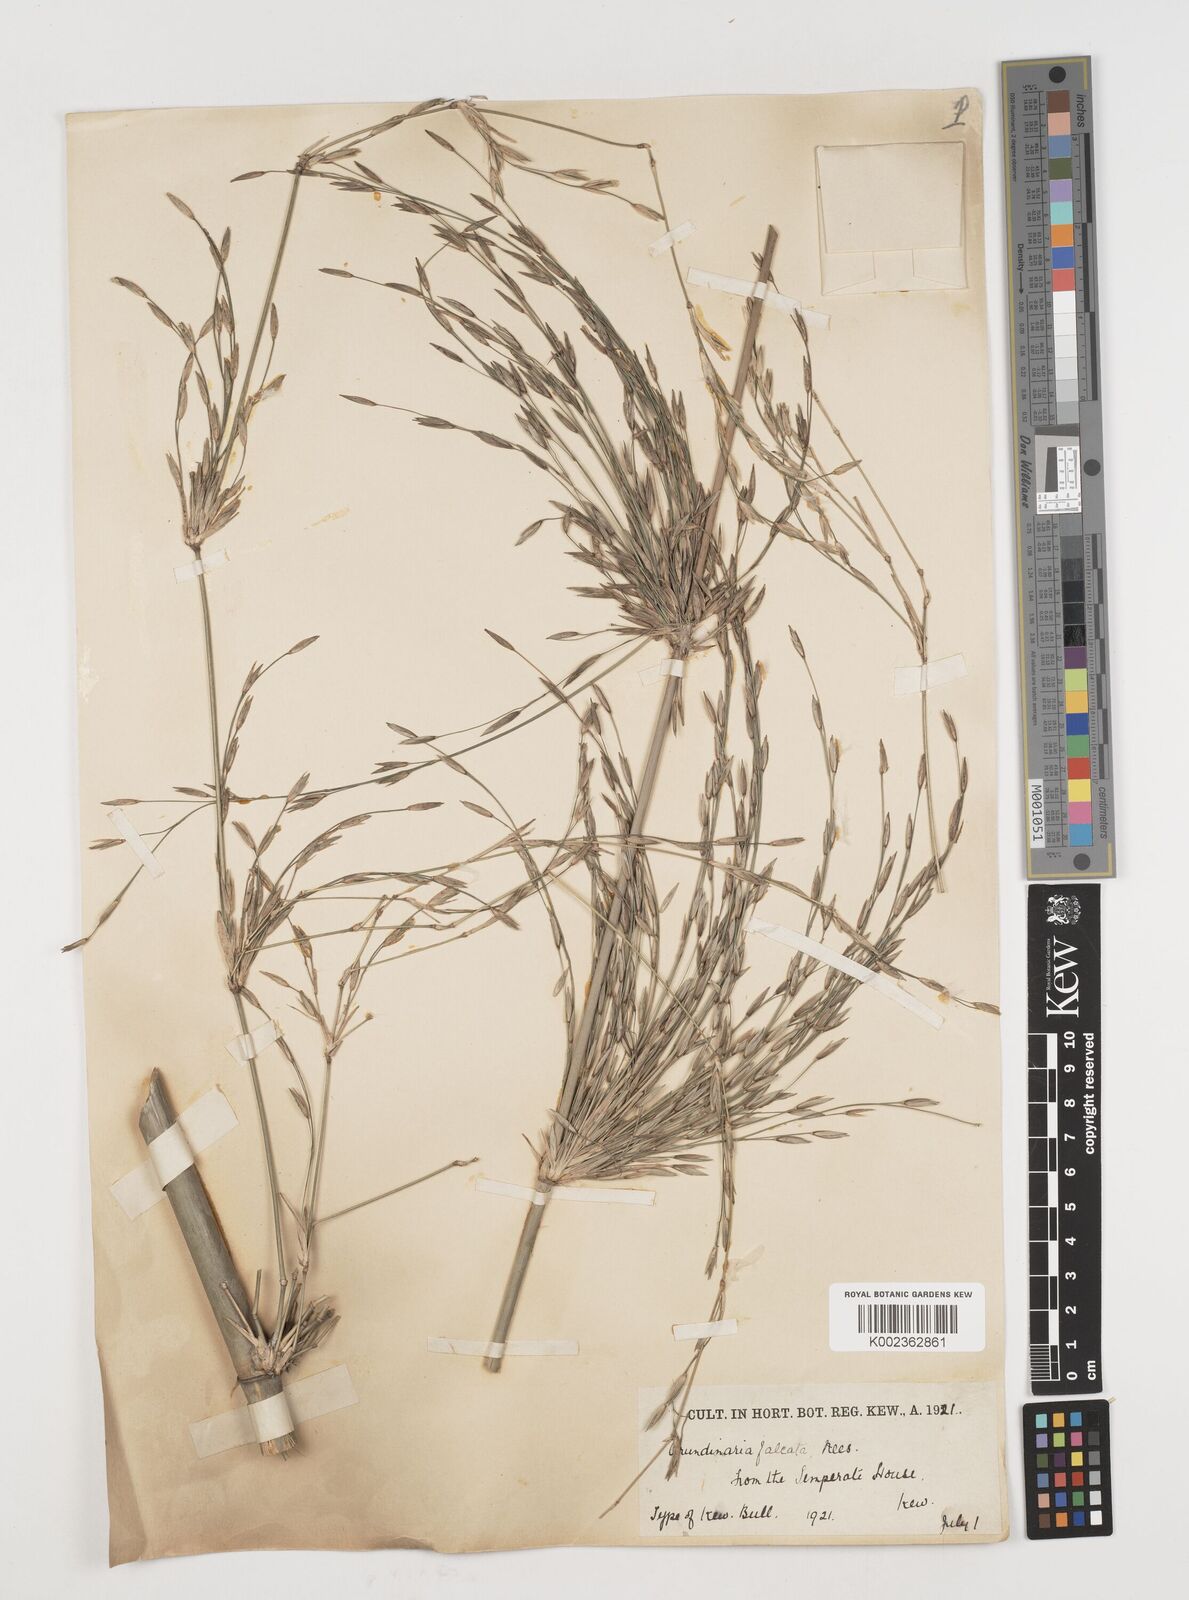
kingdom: Plantae
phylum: Tracheophyta
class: Liliopsida
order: Poales
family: Poaceae
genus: Drepanostachyum
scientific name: Drepanostachyum falcatum
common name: Himalayan bamboo
